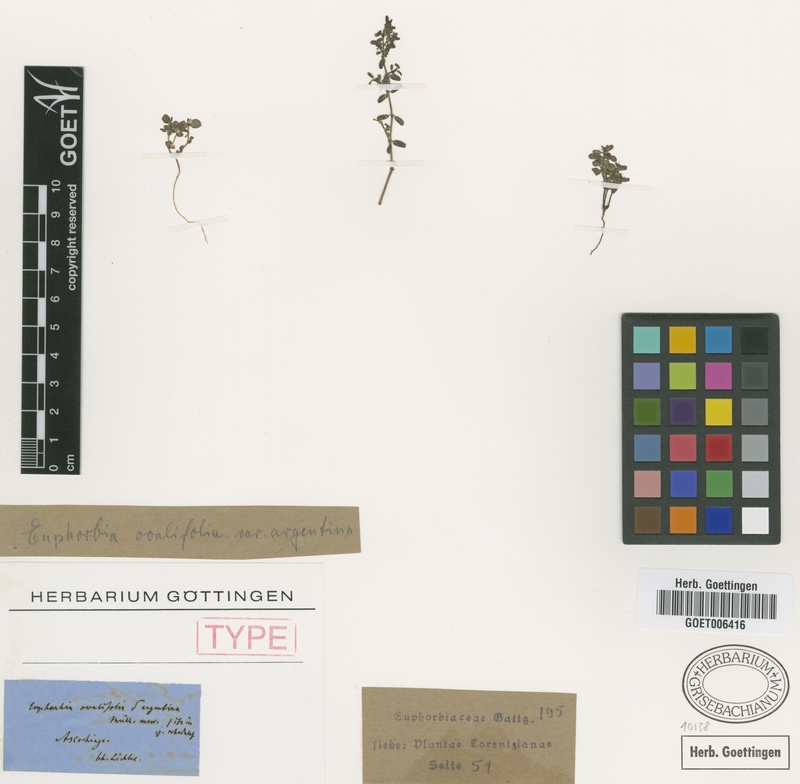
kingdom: Plantae
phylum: Tracheophyta
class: Magnoliopsida
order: Malpighiales
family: Euphorbiaceae
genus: Euphorbia
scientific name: Euphorbia klotzschii
